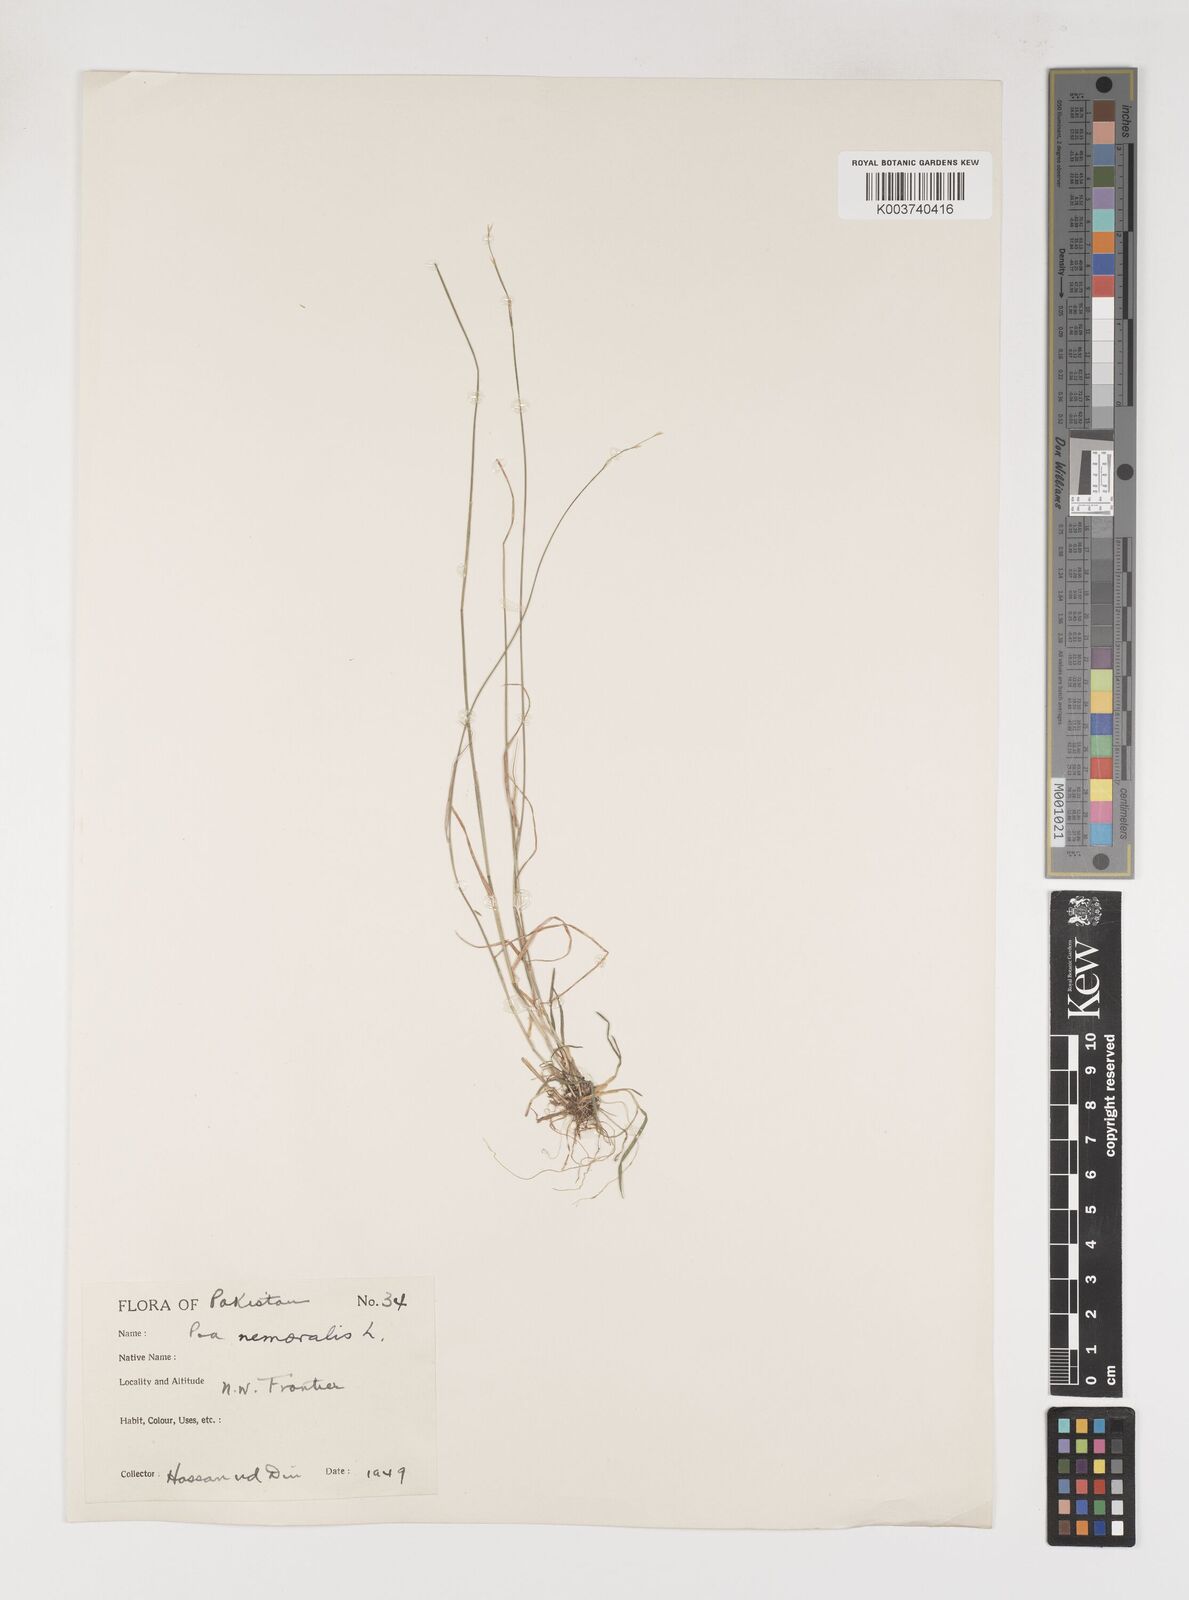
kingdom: Plantae
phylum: Tracheophyta
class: Liliopsida
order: Poales
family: Poaceae
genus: Poa
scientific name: Poa nemoralis
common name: Wood bluegrass
